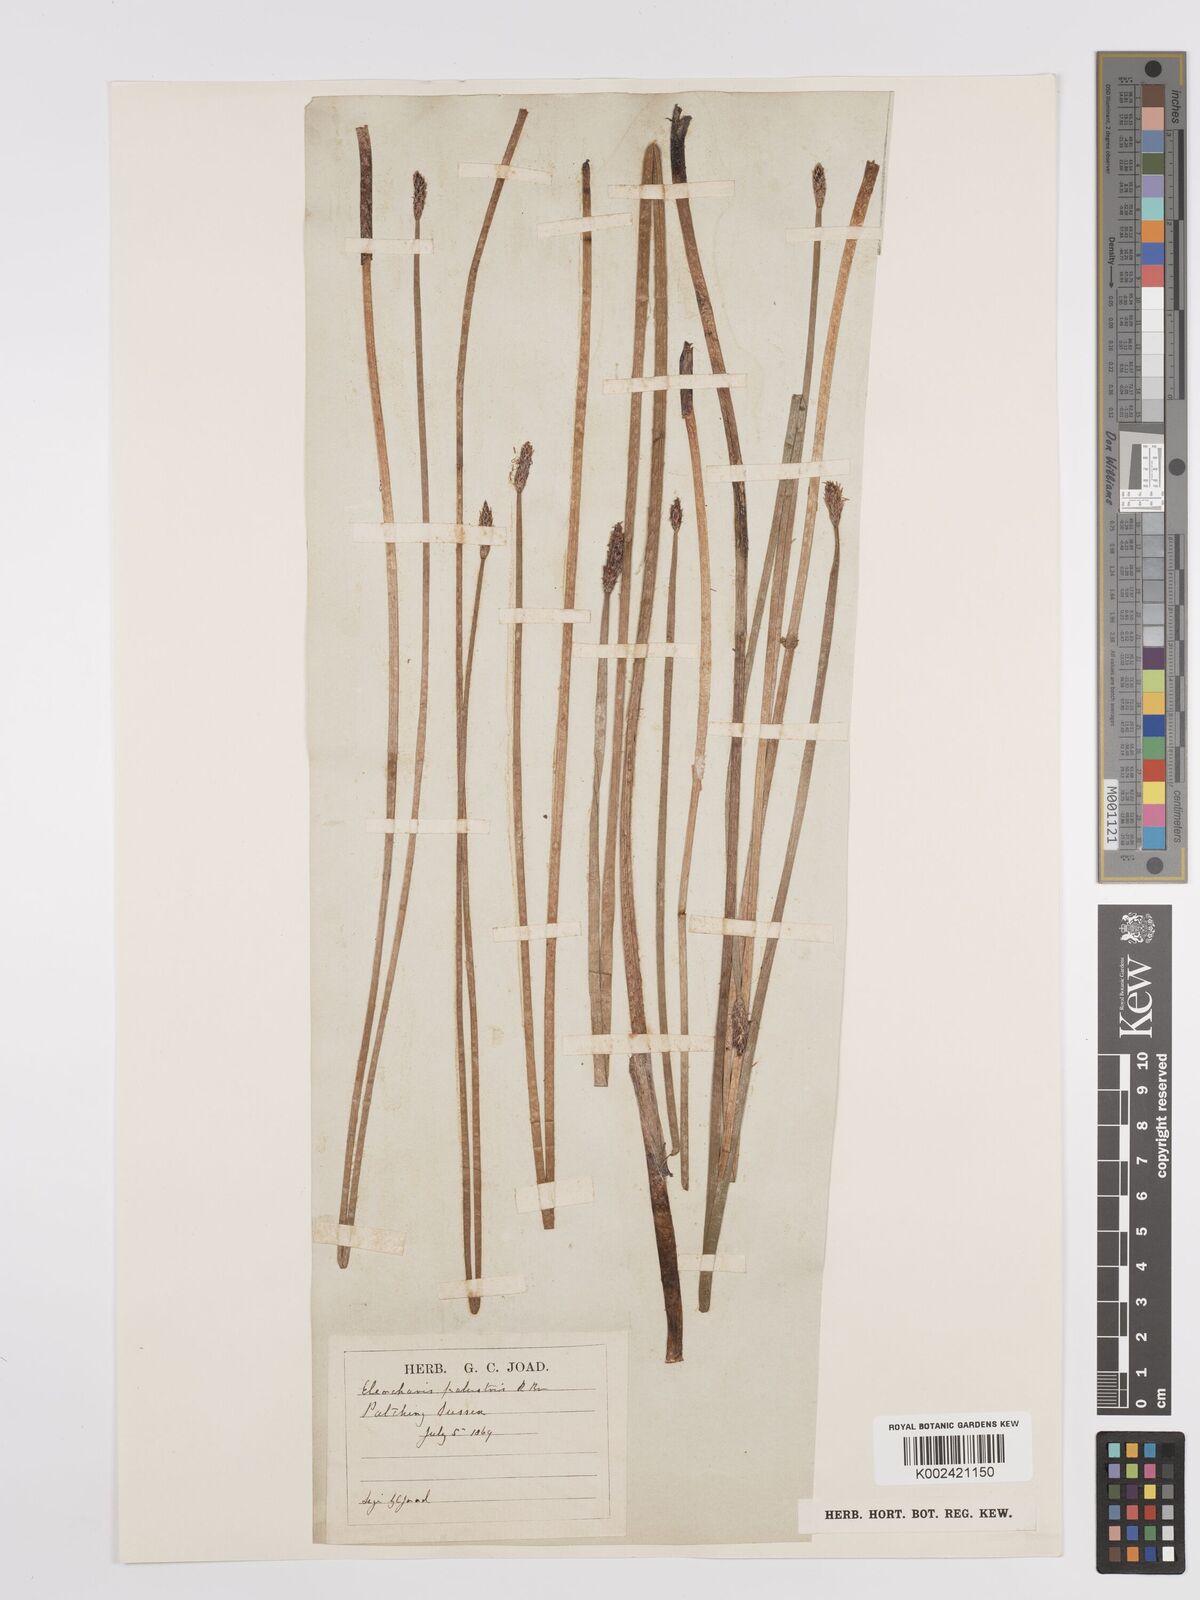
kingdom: Plantae
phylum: Tracheophyta
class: Liliopsida
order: Poales
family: Cyperaceae
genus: Eleocharis
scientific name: Eleocharis palustris
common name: Common spike-rush
